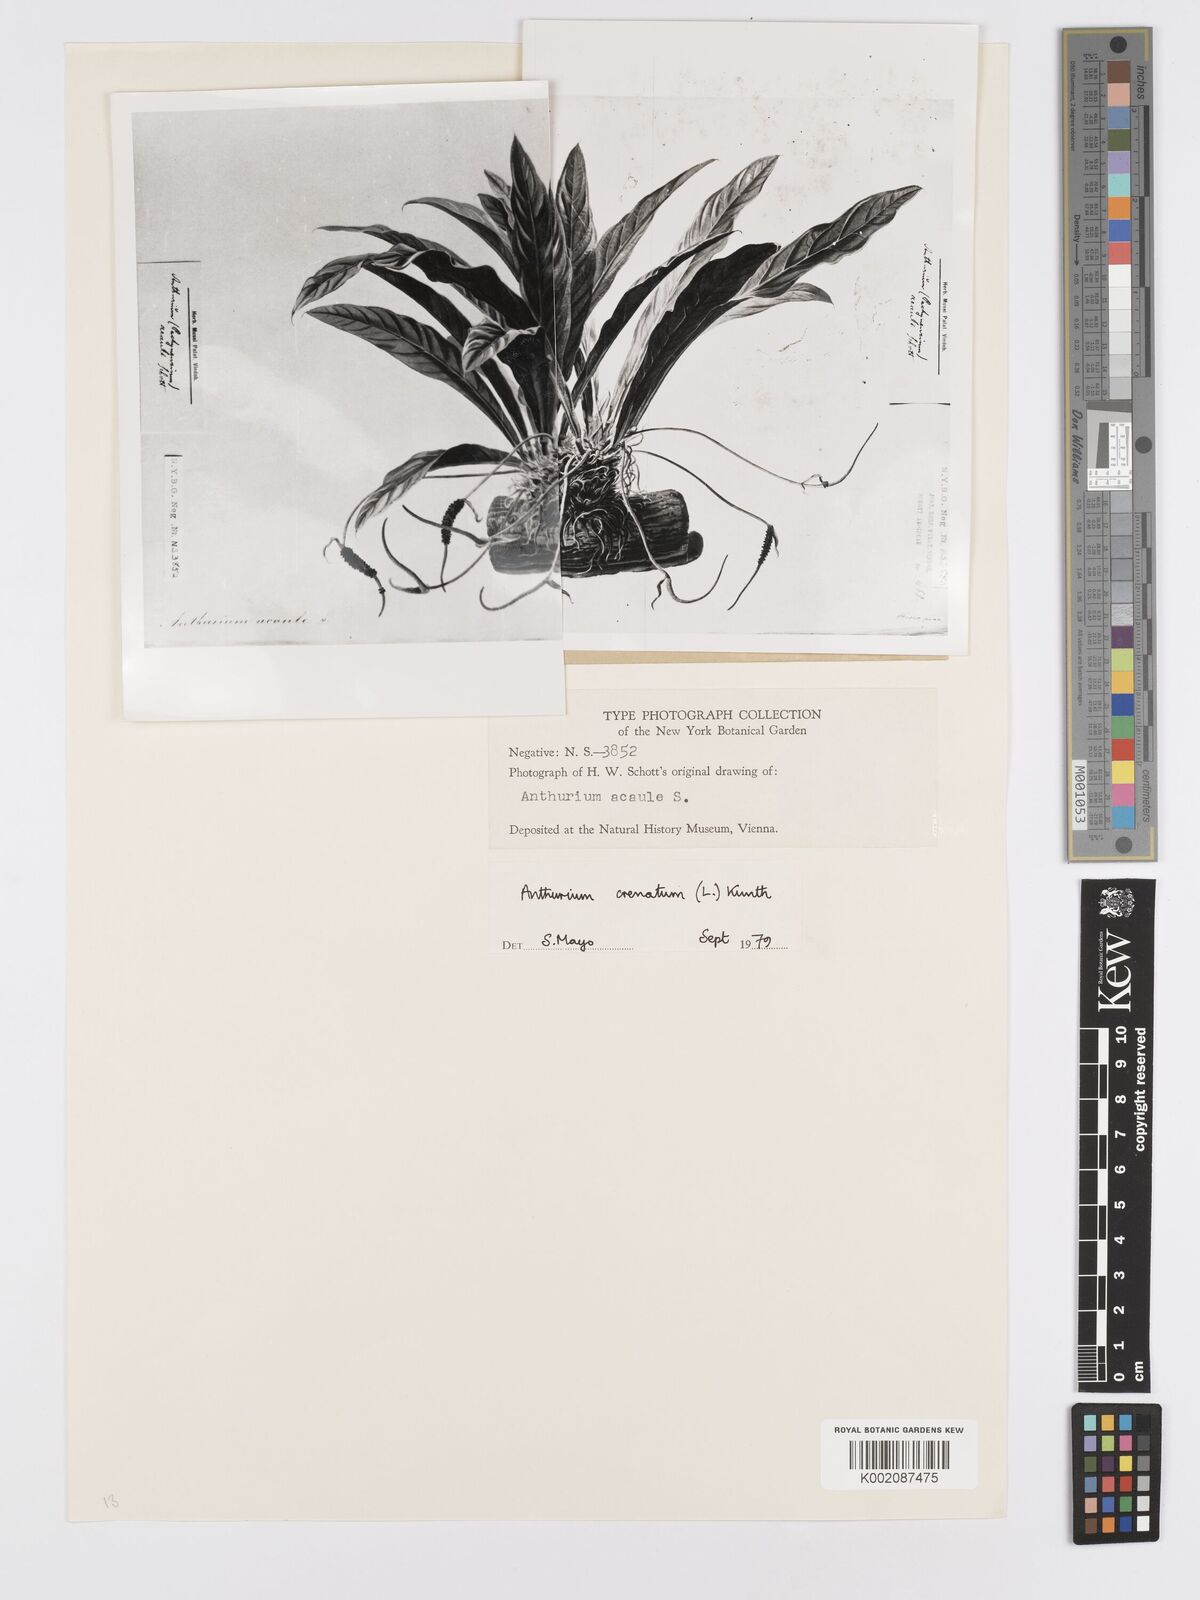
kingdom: Plantae
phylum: Tracheophyta
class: Liliopsida
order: Alismatales
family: Araceae
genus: Anthurium
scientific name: Anthurium crenatum
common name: Scalloped laceleaf
